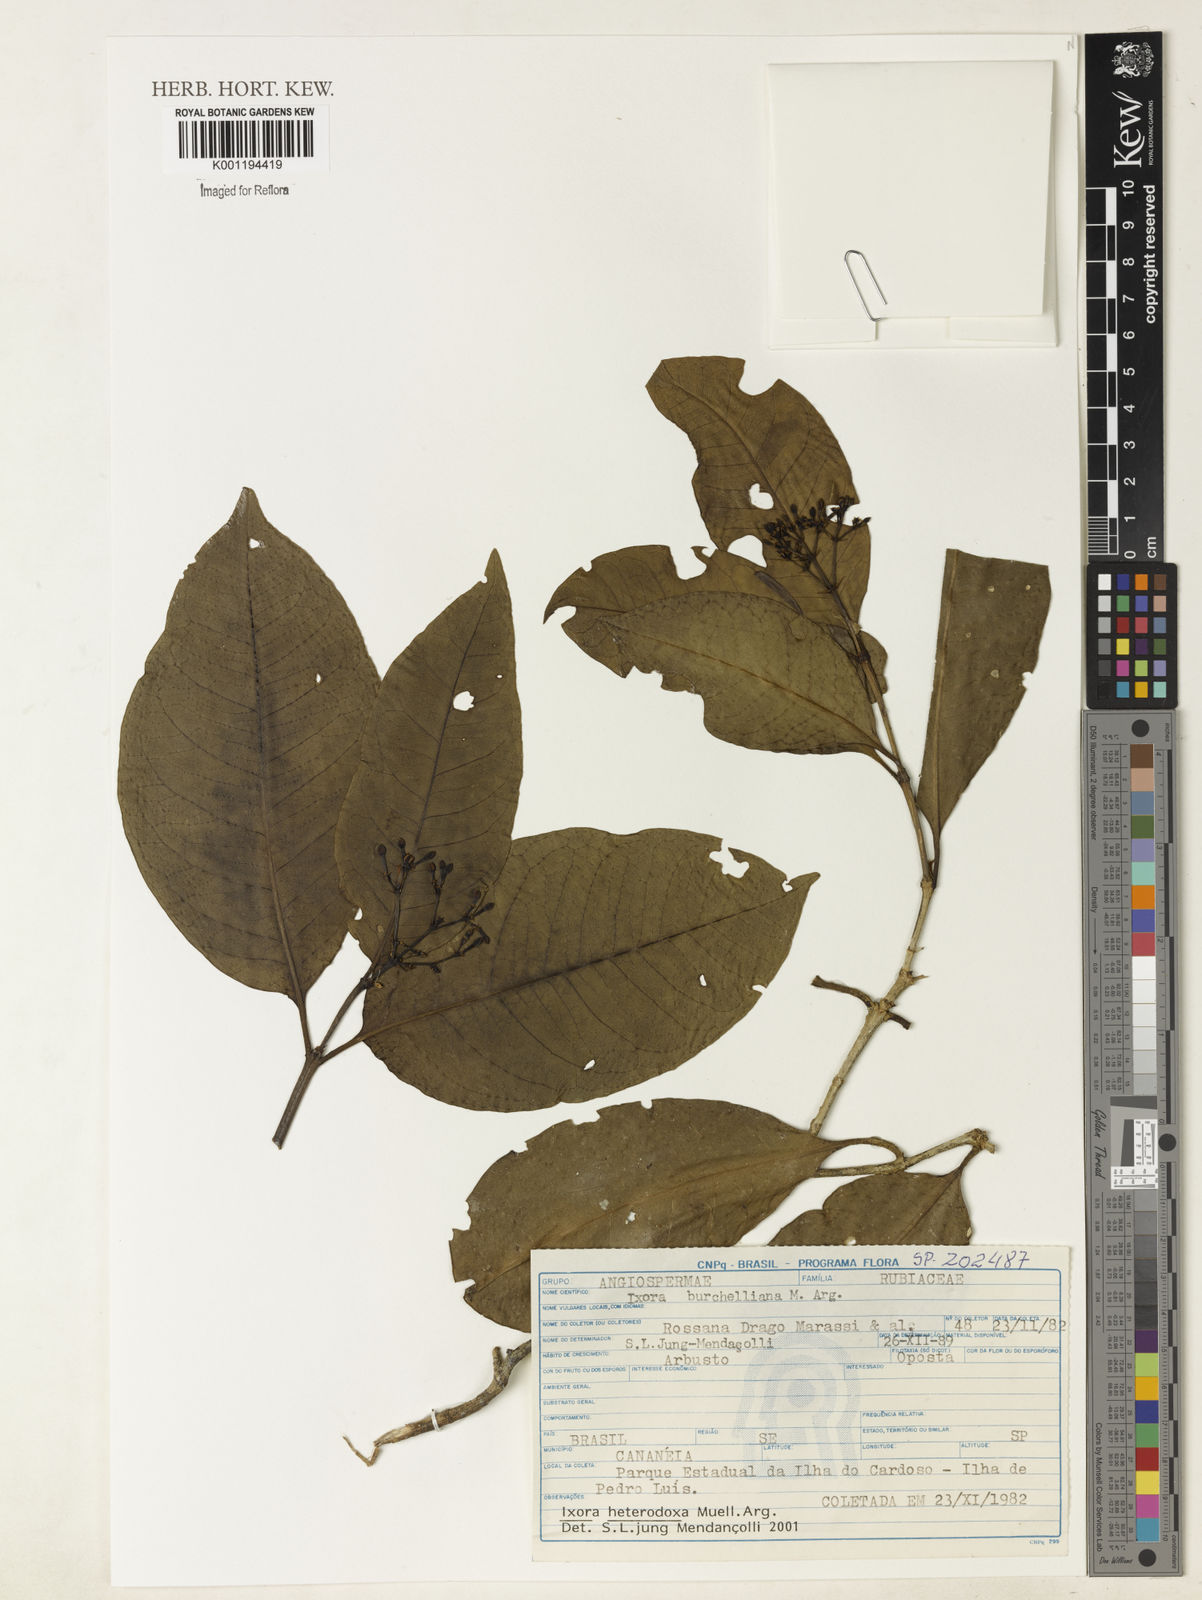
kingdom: Plantae
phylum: Tracheophyta
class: Magnoliopsida
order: Gentianales
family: Rubiaceae
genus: Ixora
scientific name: Ixora
